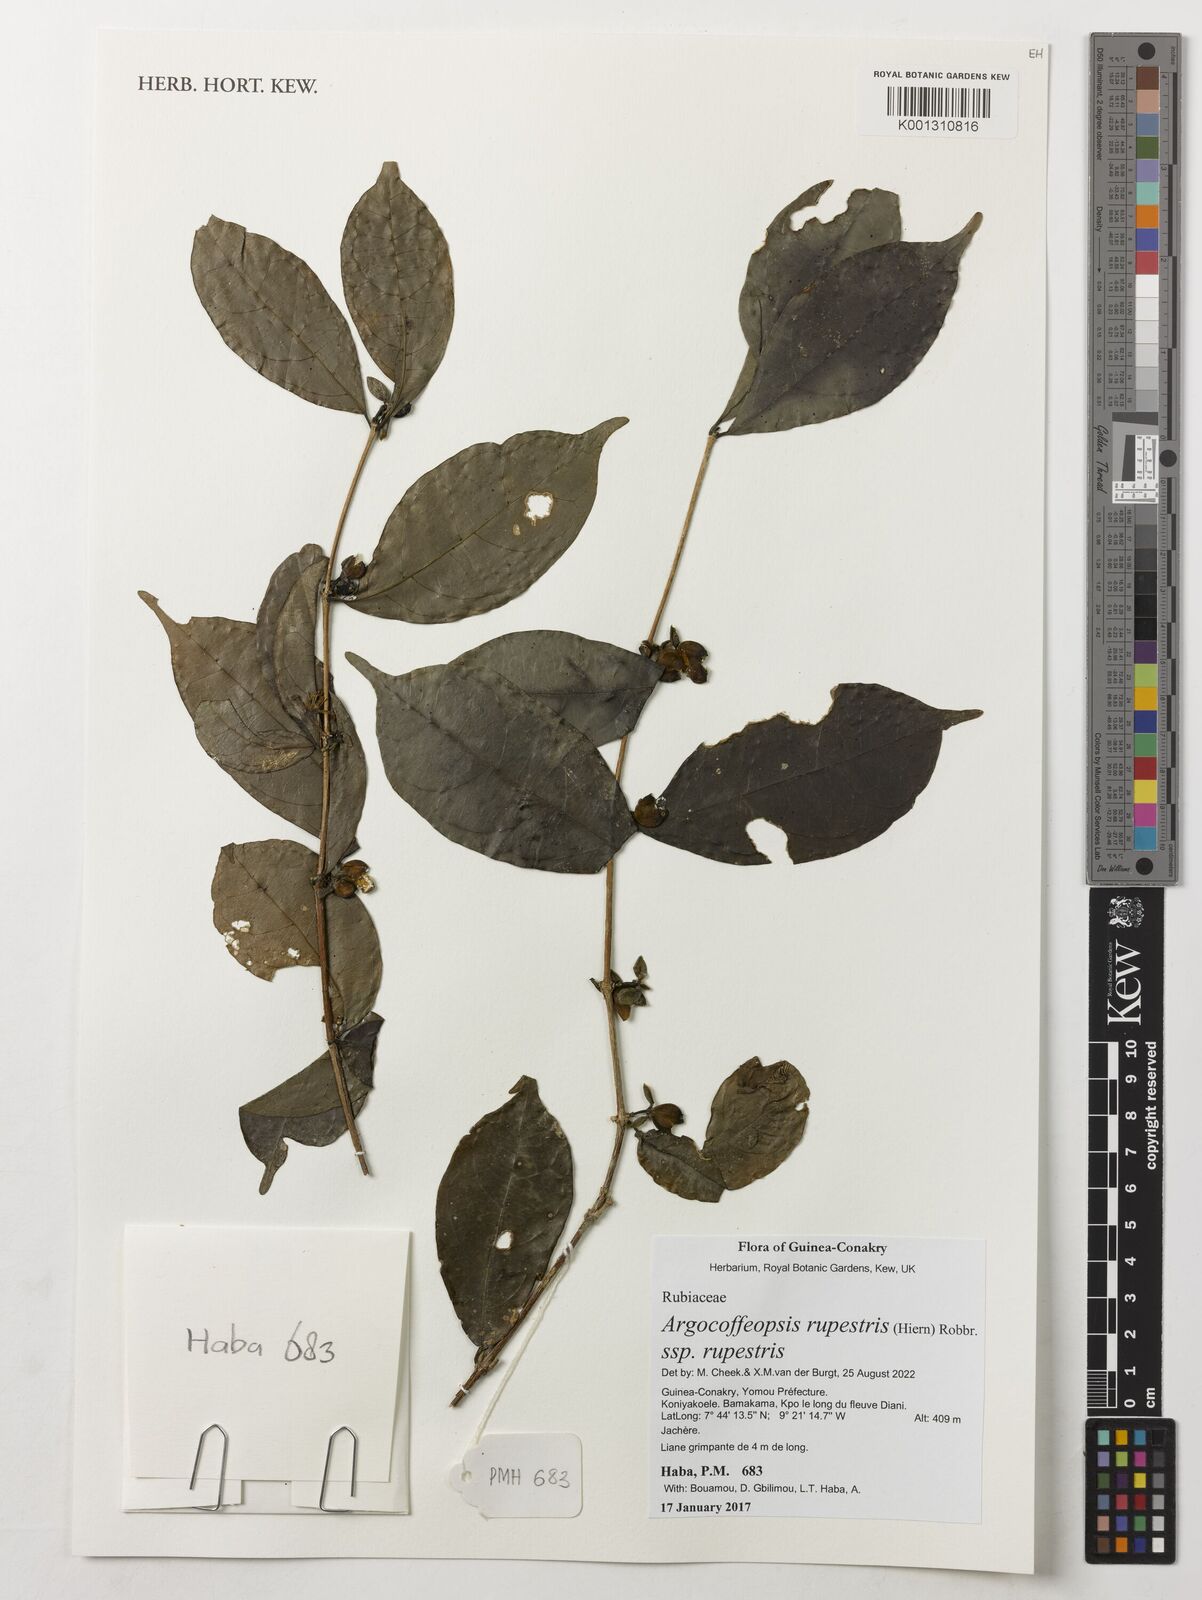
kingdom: Plantae
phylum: Tracheophyta
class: Magnoliopsida
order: Gentianales
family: Rubiaceae
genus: Argocoffeopsis
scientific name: Argocoffeopsis rupestris
